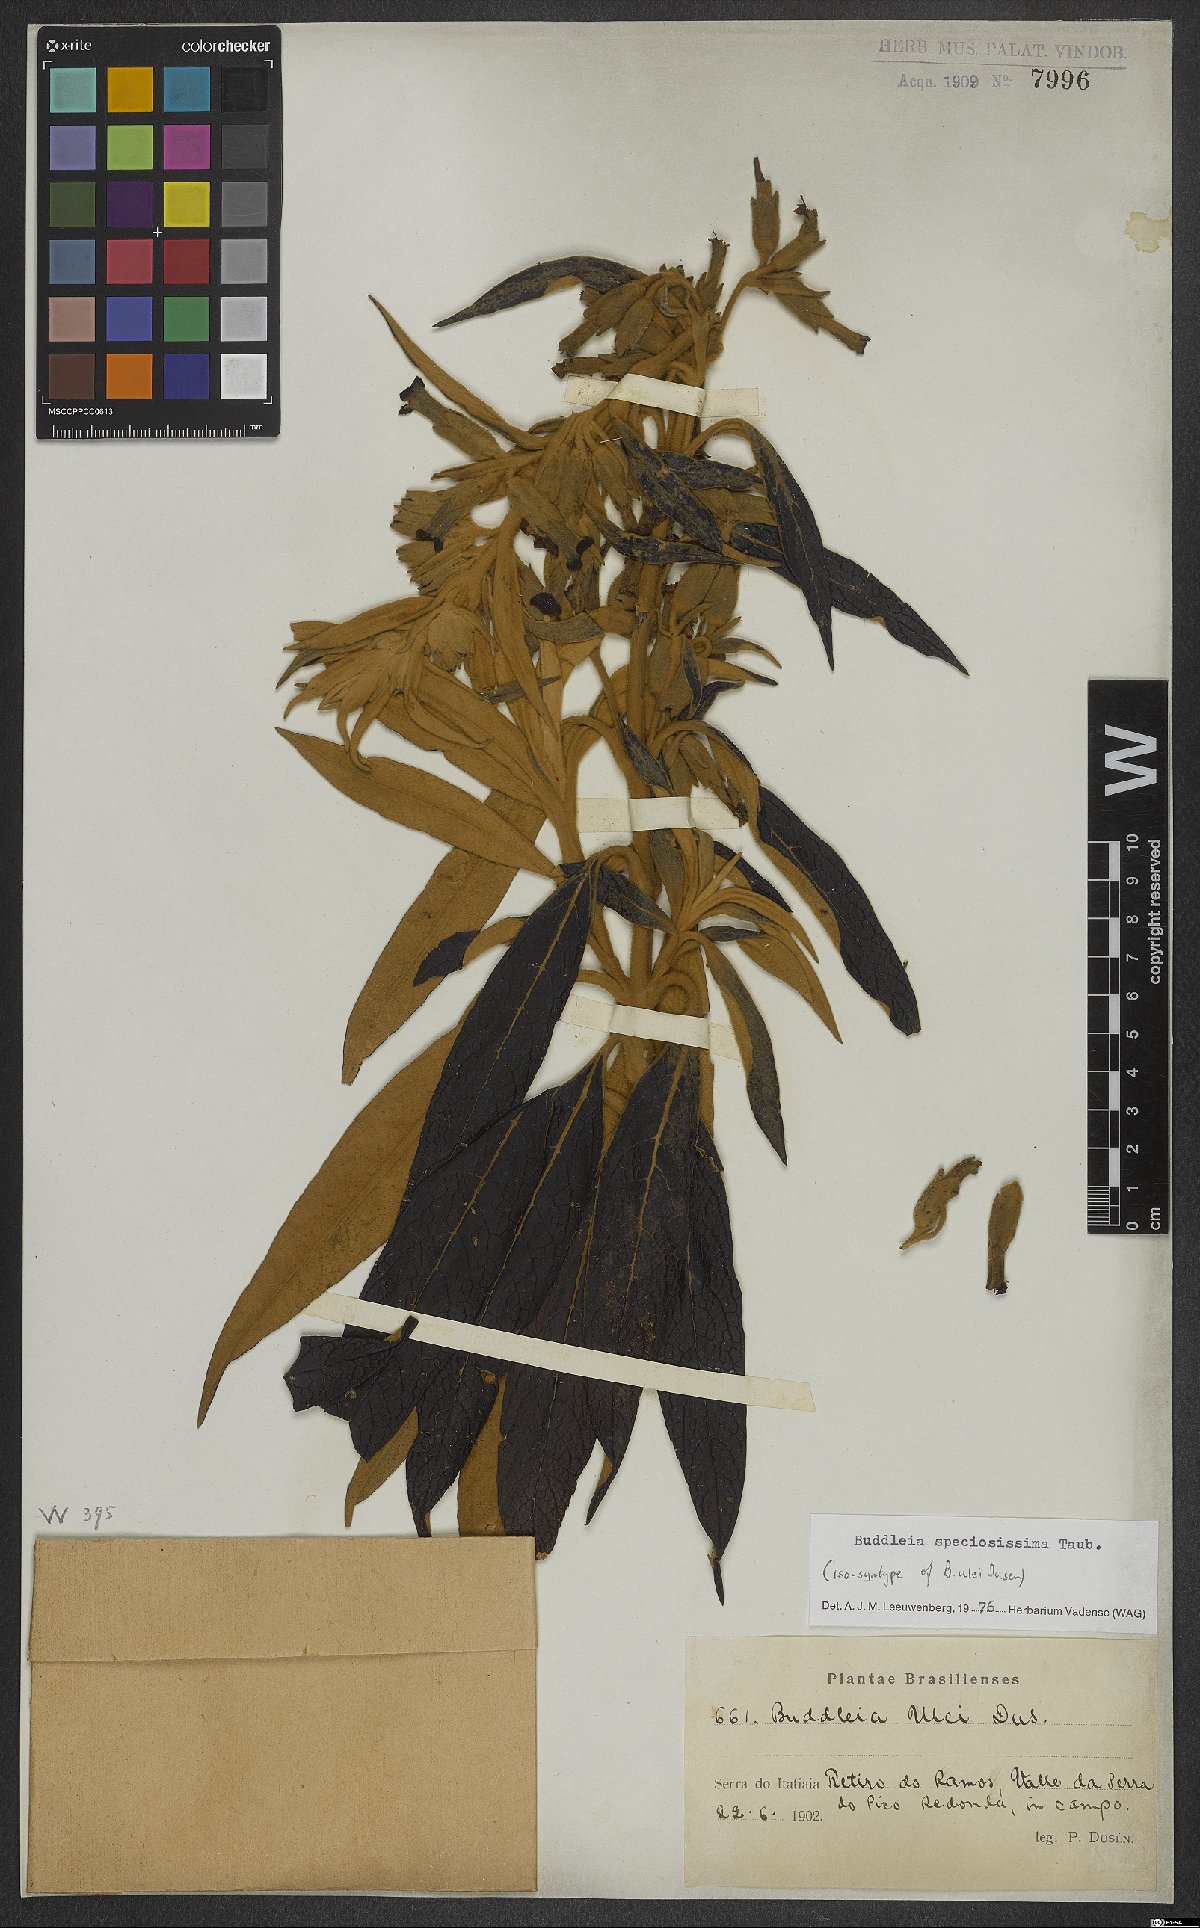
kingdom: Plantae
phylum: Tracheophyta
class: Magnoliopsida
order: Lamiales
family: Scrophulariaceae
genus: Buddleja
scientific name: Buddleja speciosissima
